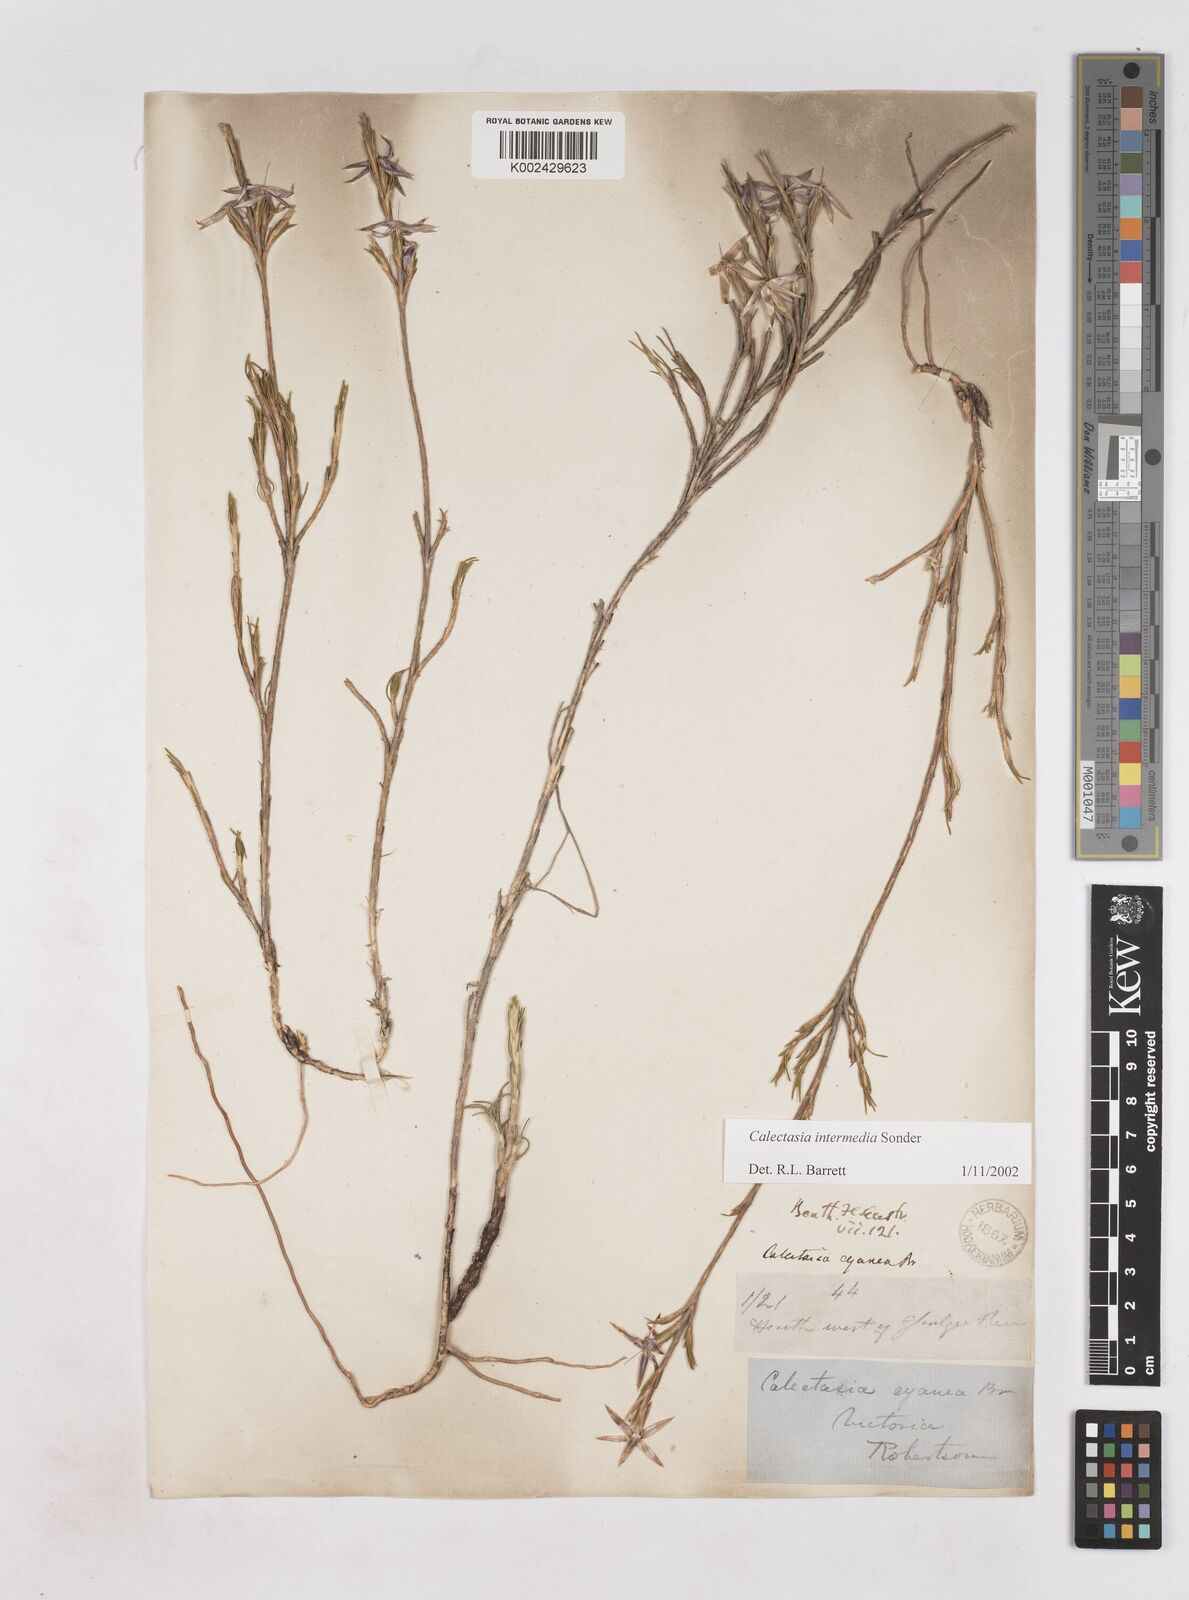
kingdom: Plantae
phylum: Tracheophyta
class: Liliopsida
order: Arecales
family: Dasypogonaceae
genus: Calectasia
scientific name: Calectasia intermedia
